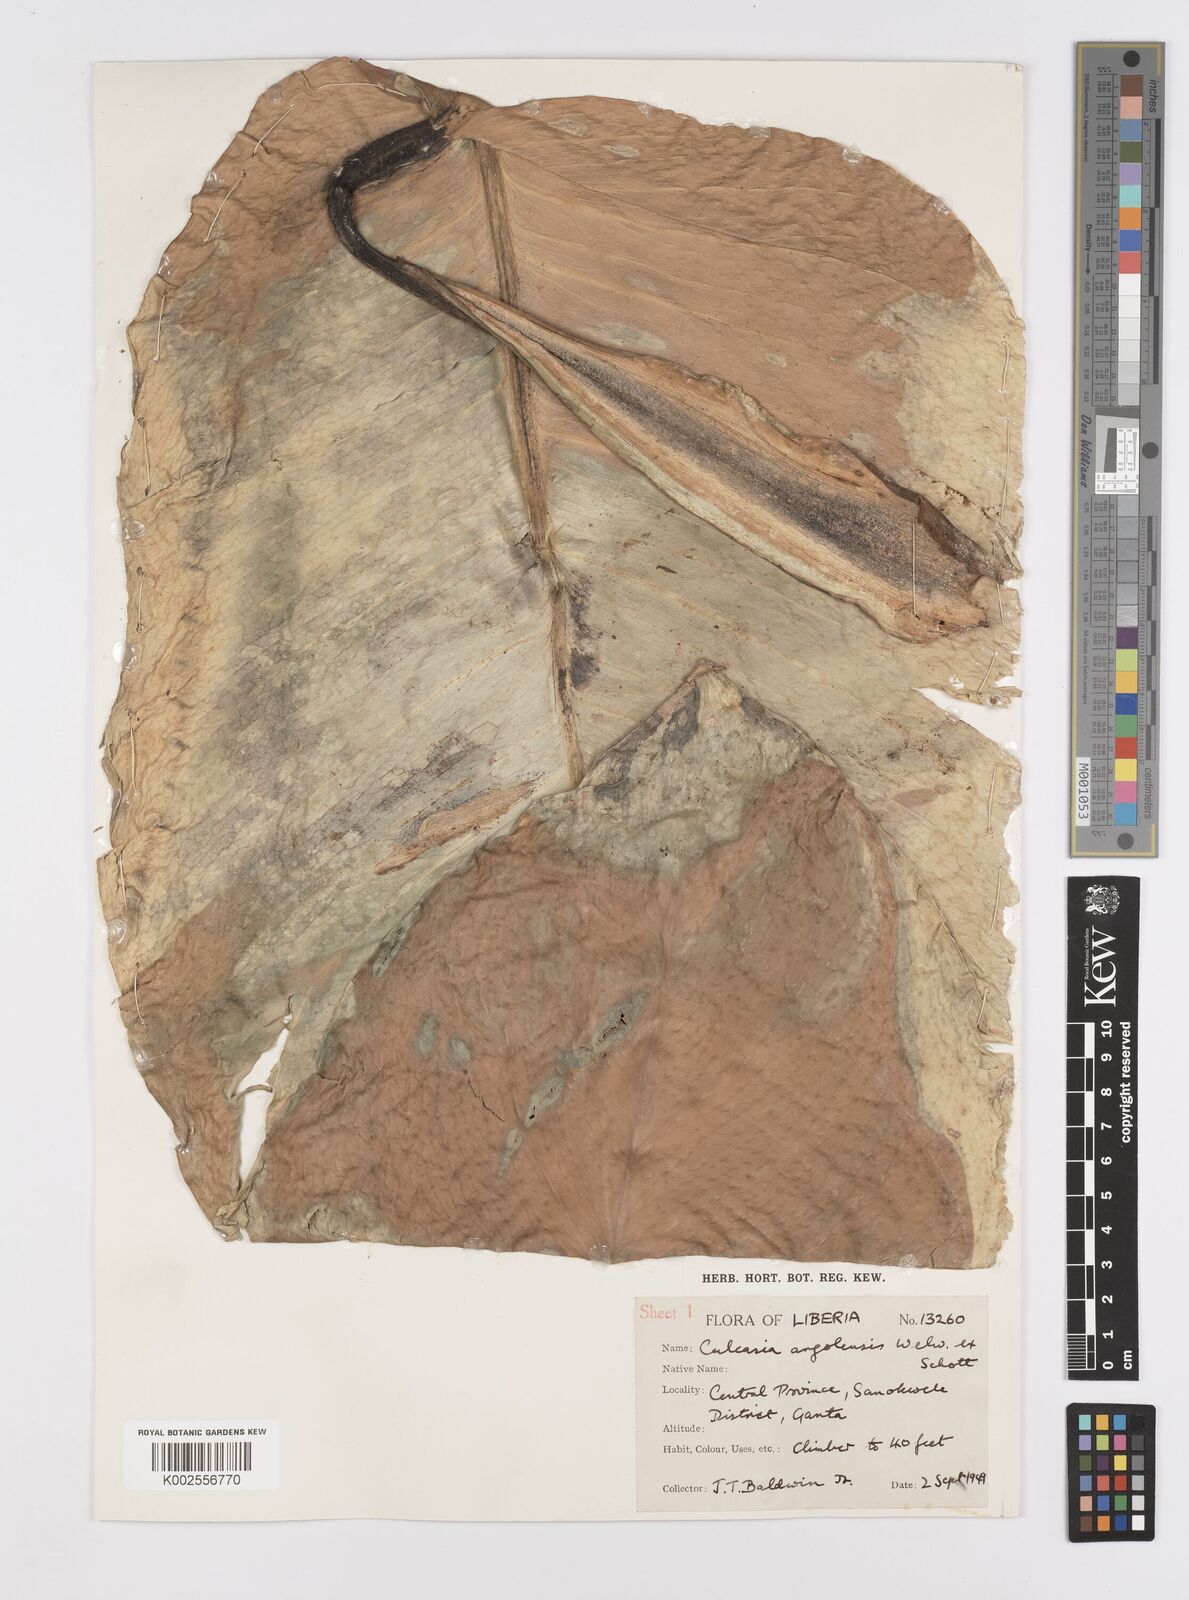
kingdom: Plantae
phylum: Tracheophyta
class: Liliopsida
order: Alismatales
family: Araceae
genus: Culcasia
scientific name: Culcasia angolensis
